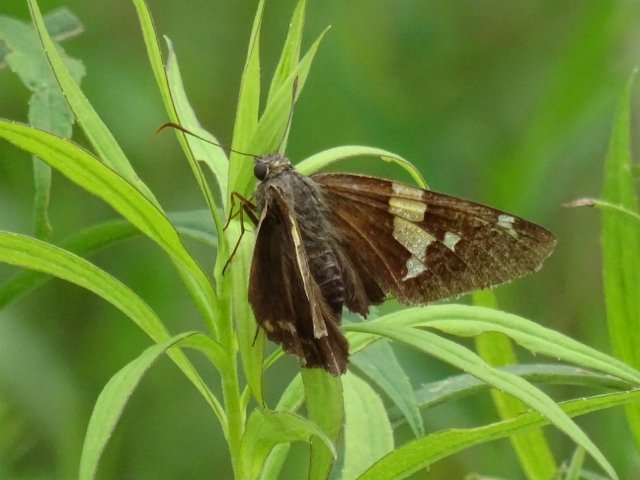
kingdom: Animalia
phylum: Arthropoda
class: Insecta
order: Lepidoptera
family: Hesperiidae
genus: Epargyreus
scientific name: Epargyreus clarus
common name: Silver-spotted Skipper
